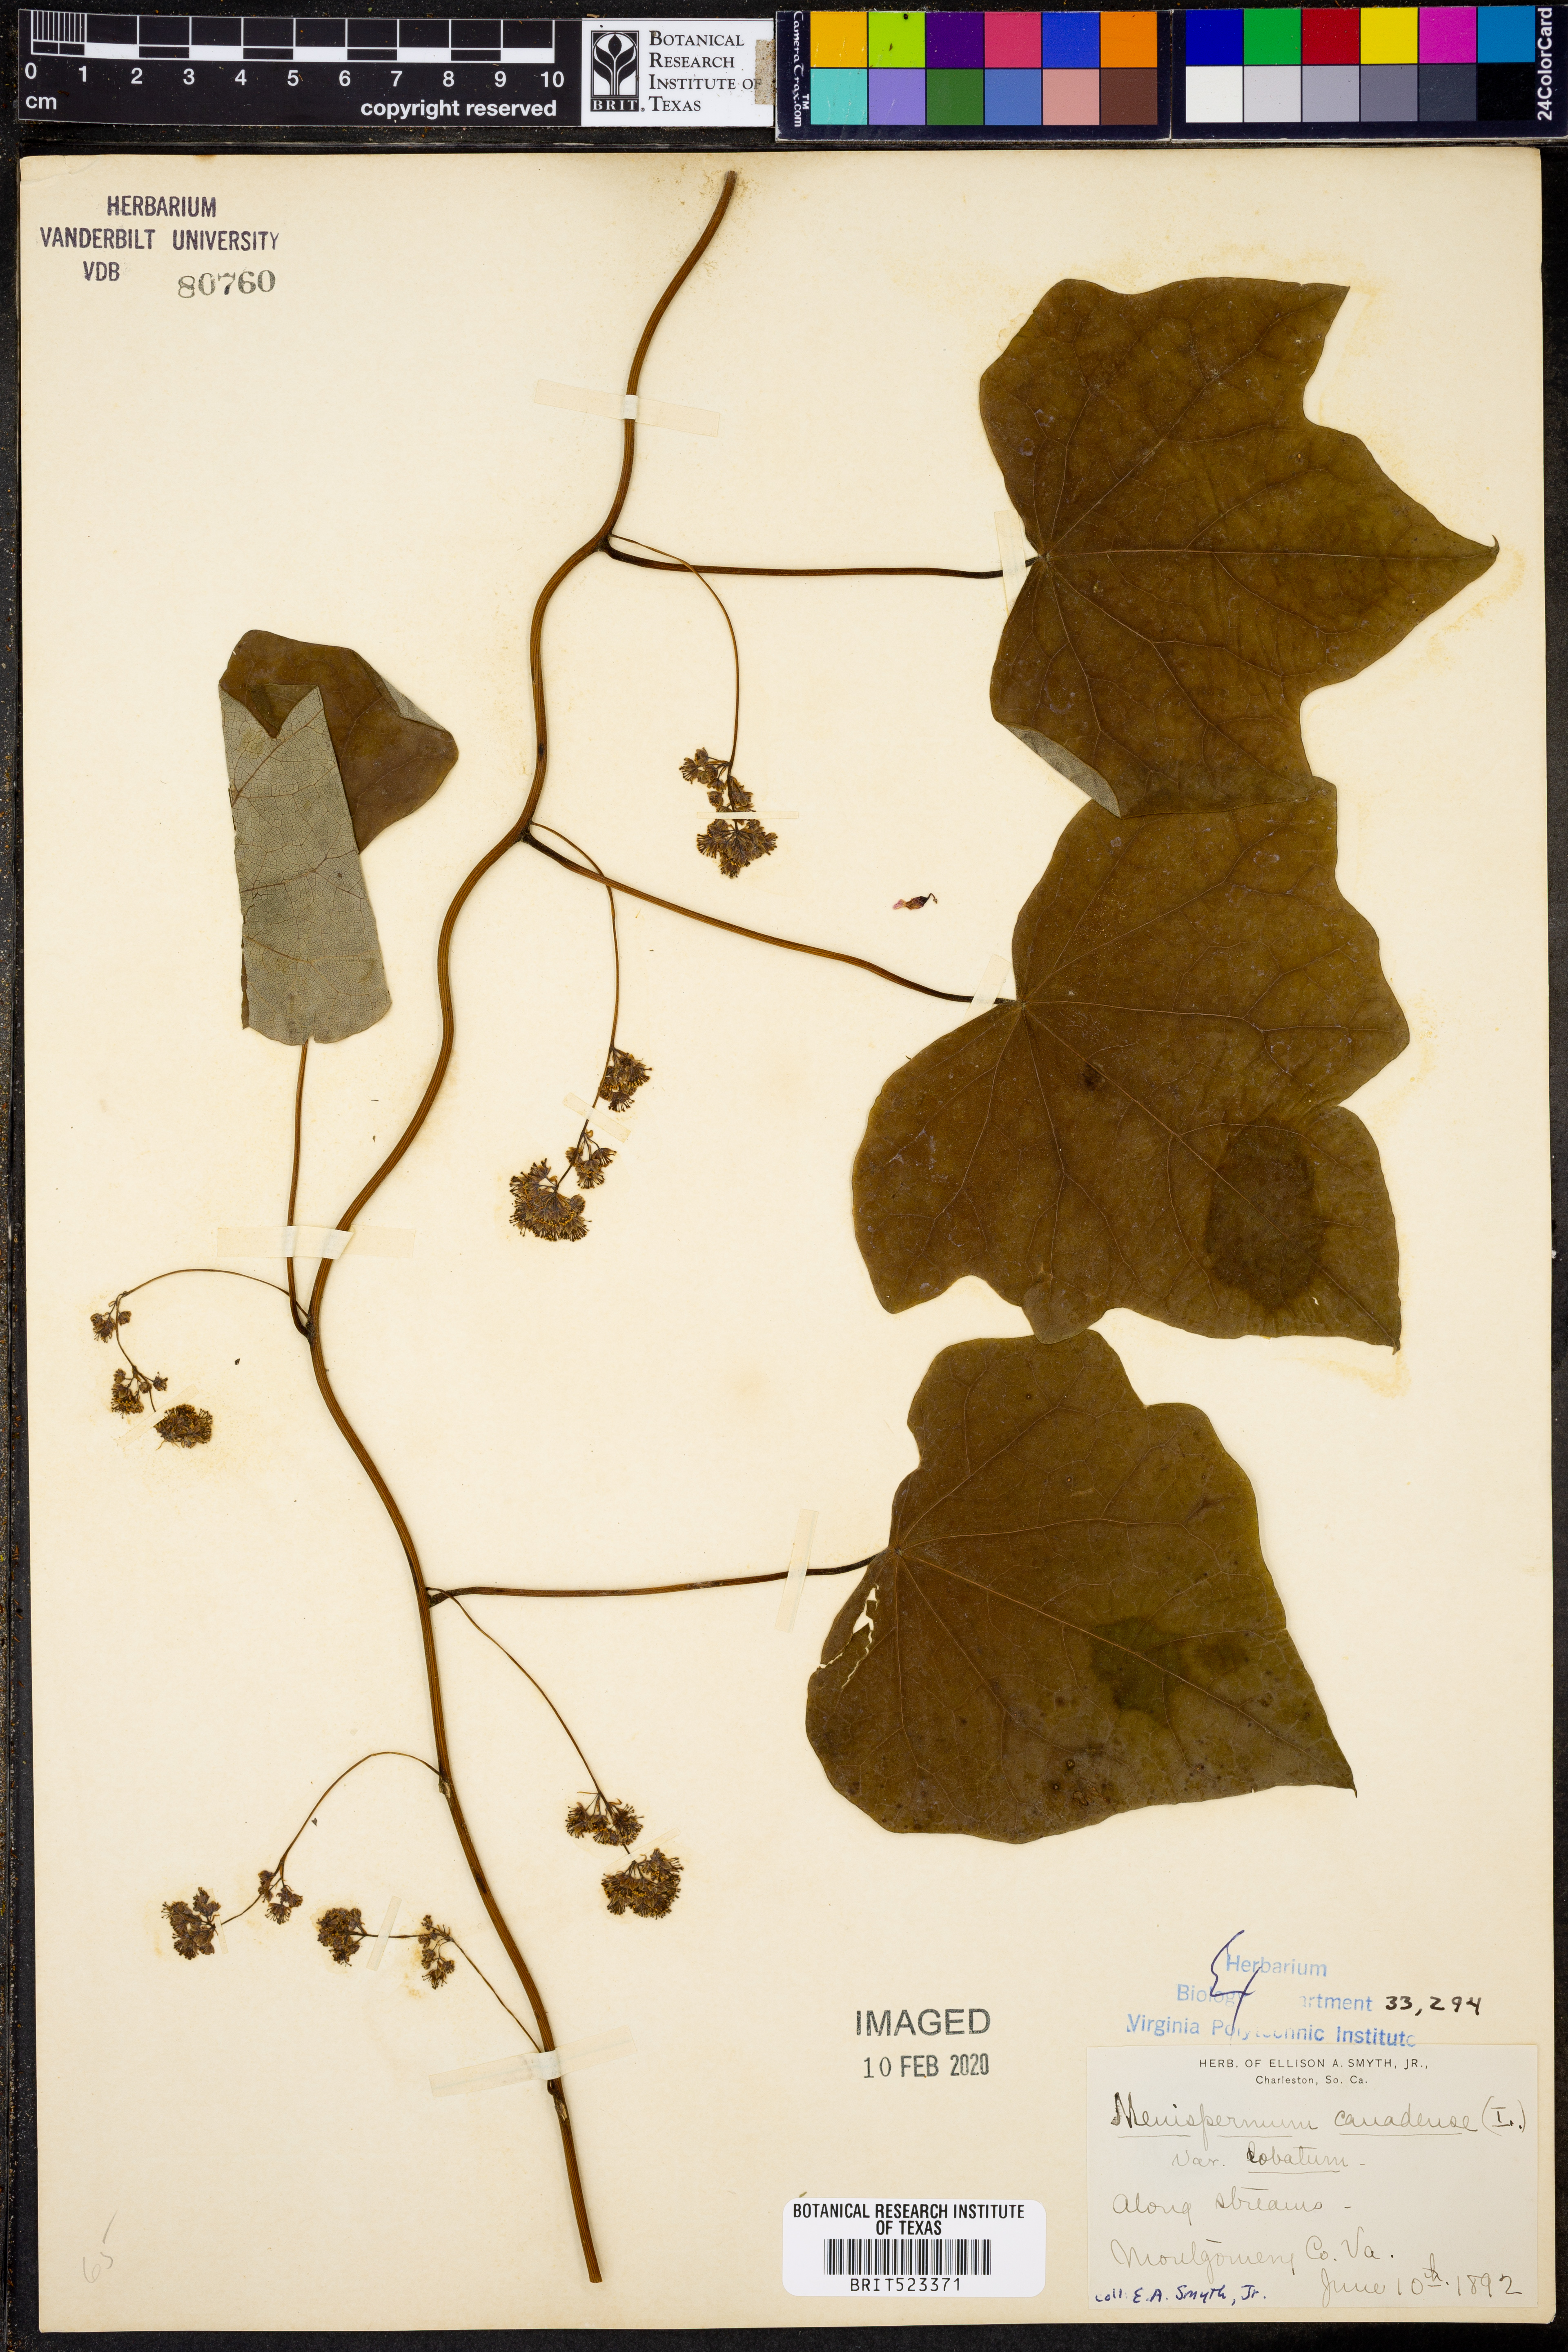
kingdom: Plantae
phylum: Tracheophyta
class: Magnoliopsida
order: Ranunculales
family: Menispermaceae
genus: Menispermum
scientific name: Menispermum canadense
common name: Moonseed
